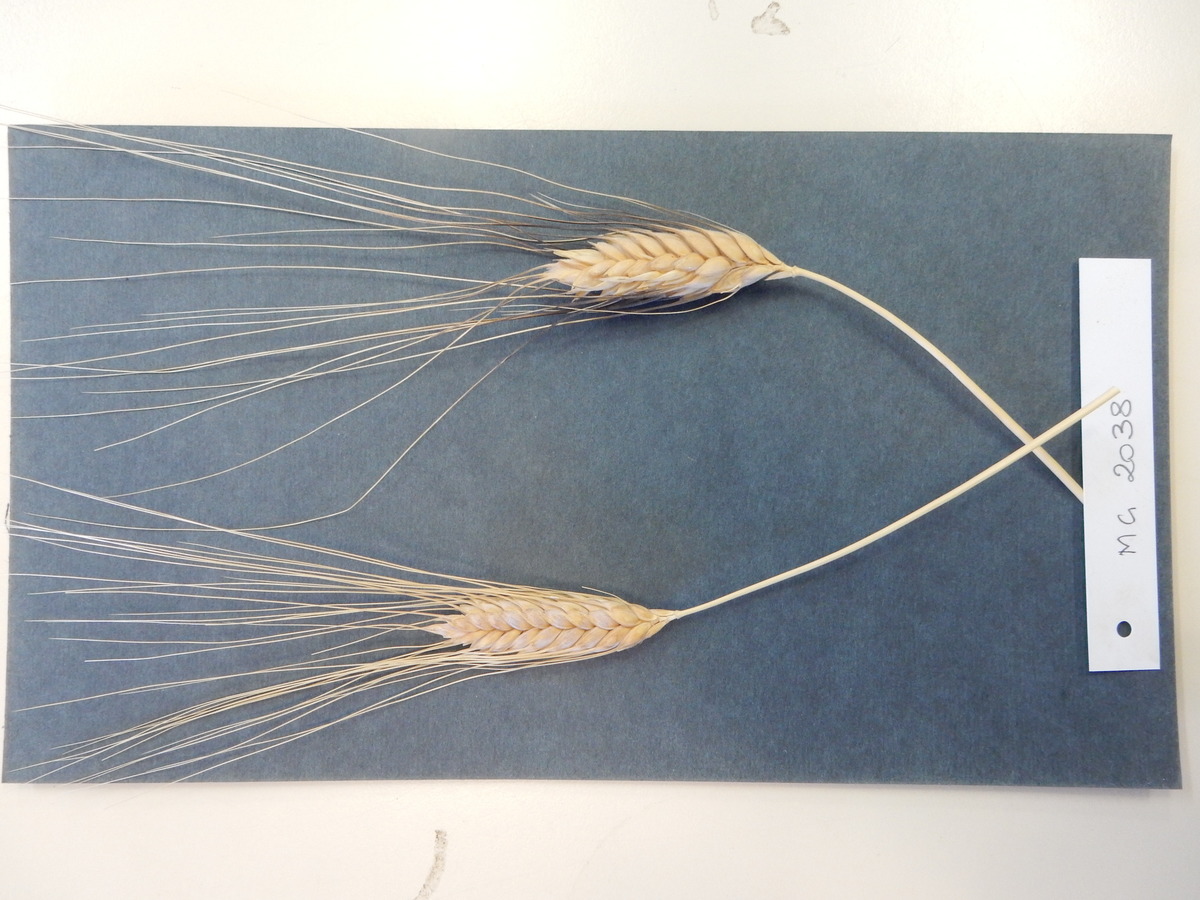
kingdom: Plantae
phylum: Tracheophyta
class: Liliopsida
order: Poales
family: Poaceae
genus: Triticum
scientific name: Triticum turgidum
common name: Wheat
